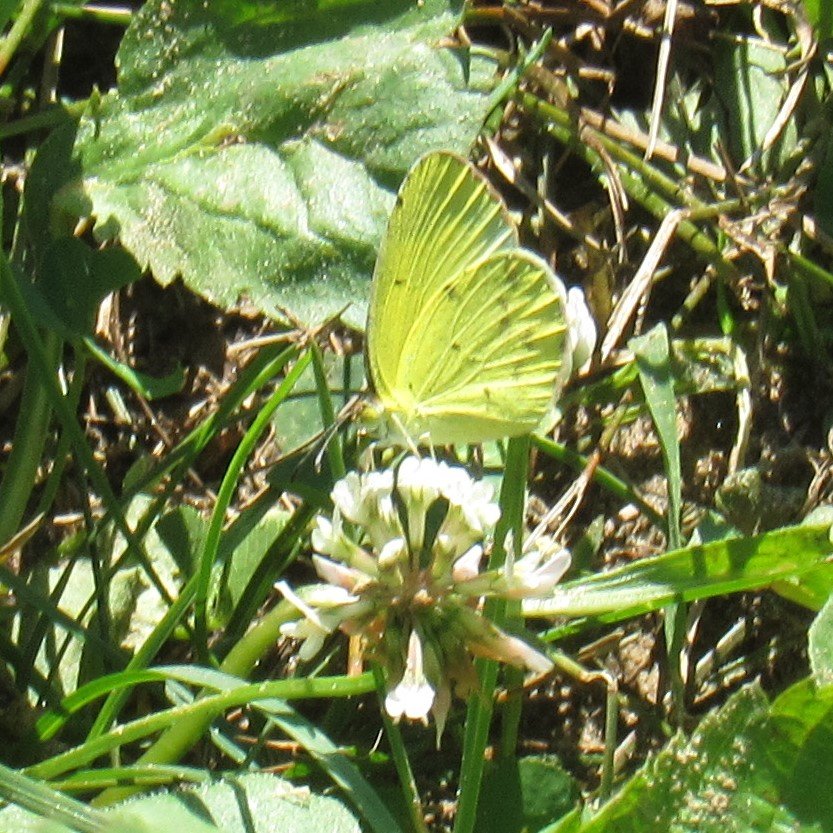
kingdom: Animalia
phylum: Arthropoda
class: Insecta
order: Lepidoptera
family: Pieridae
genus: Pyrisitia
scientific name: Pyrisitia lisa
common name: Little Yellow
